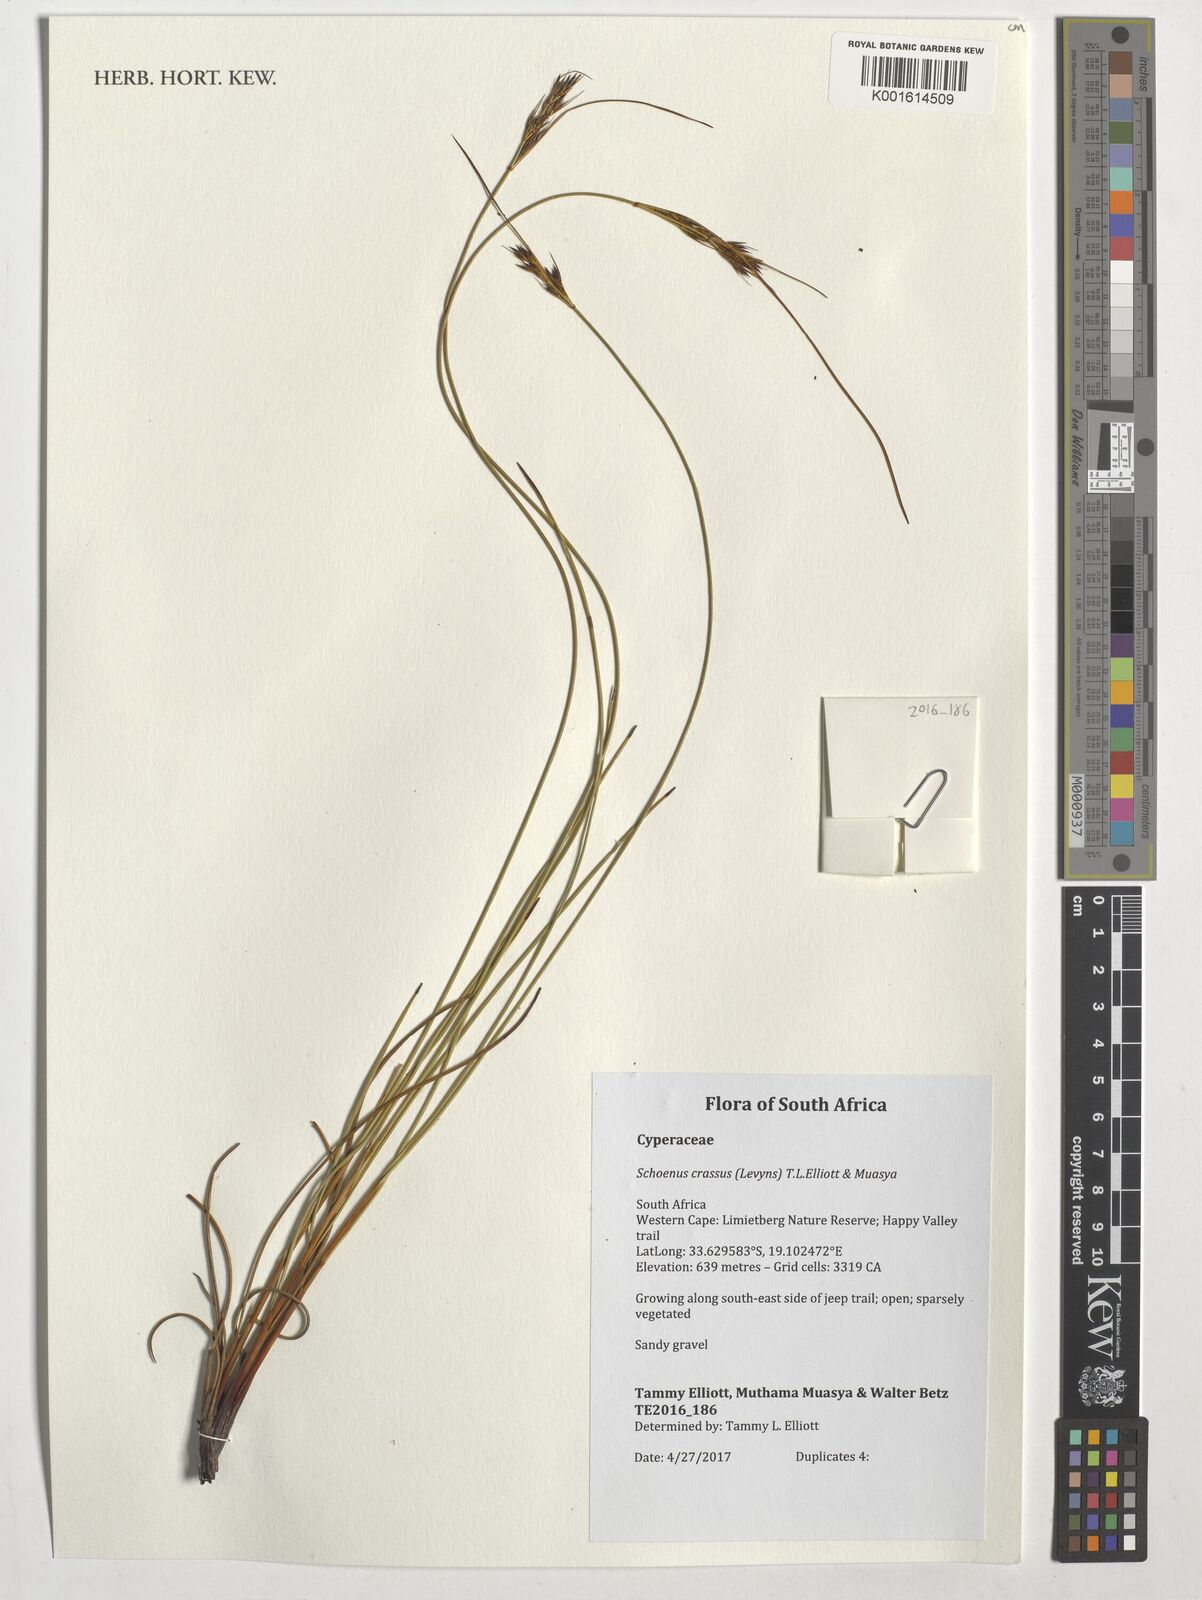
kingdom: Plantae
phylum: Tracheophyta
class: Liliopsida
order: Poales
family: Cyperaceae
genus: Schoenus
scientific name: Schoenus crassus
